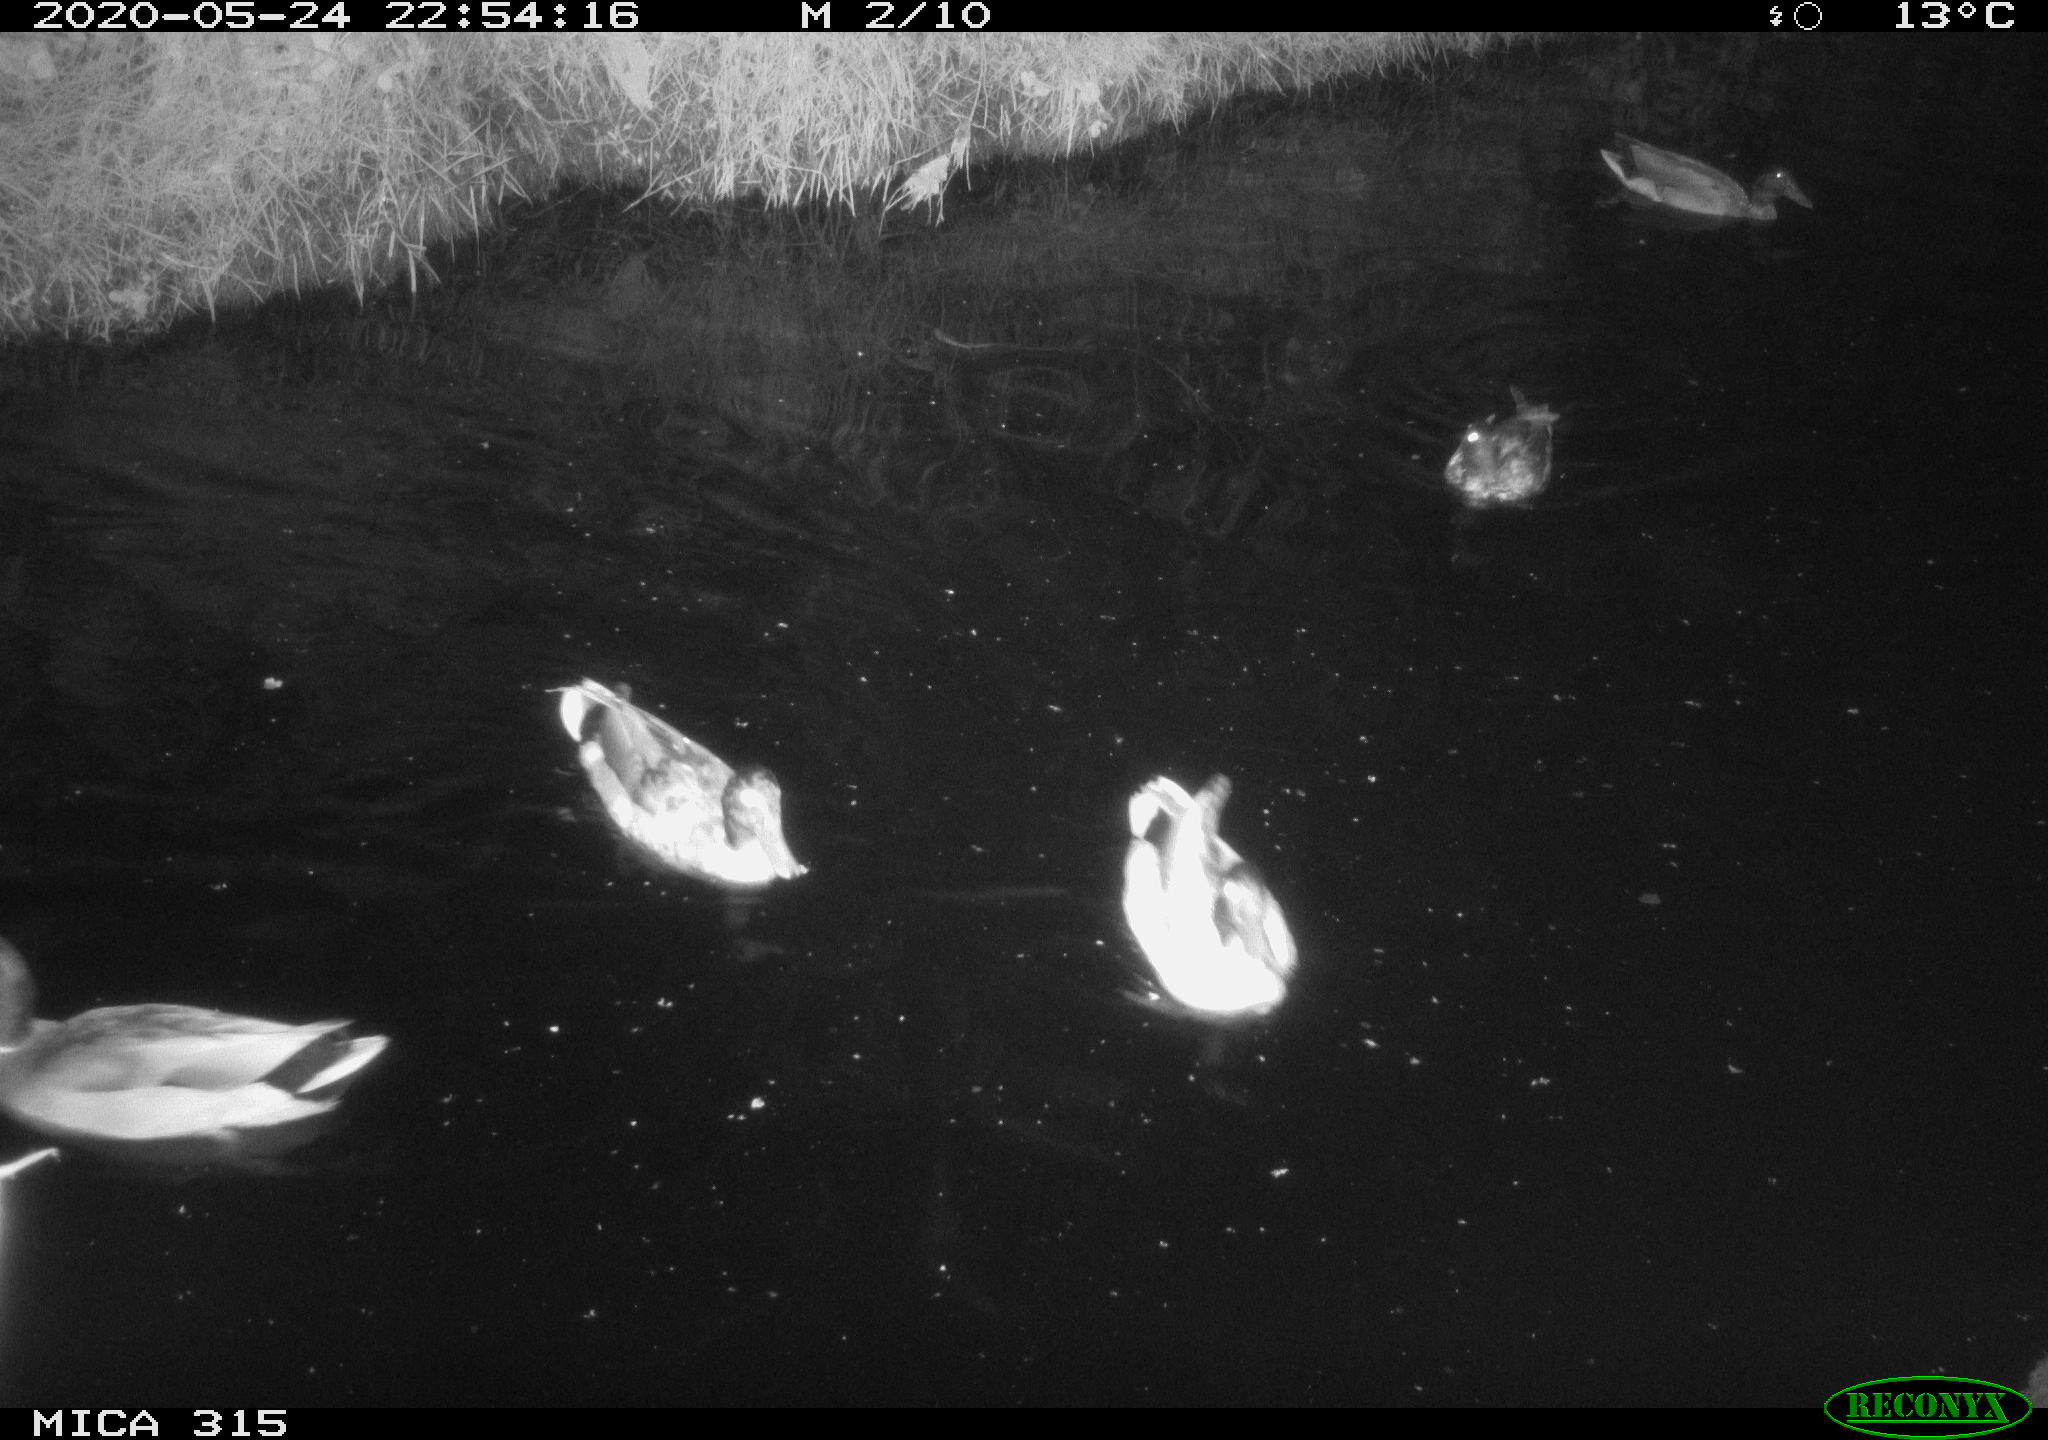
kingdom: Animalia
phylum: Chordata
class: Aves
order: Anseriformes
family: Anatidae
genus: Anas
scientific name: Anas platyrhynchos
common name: Mallard
